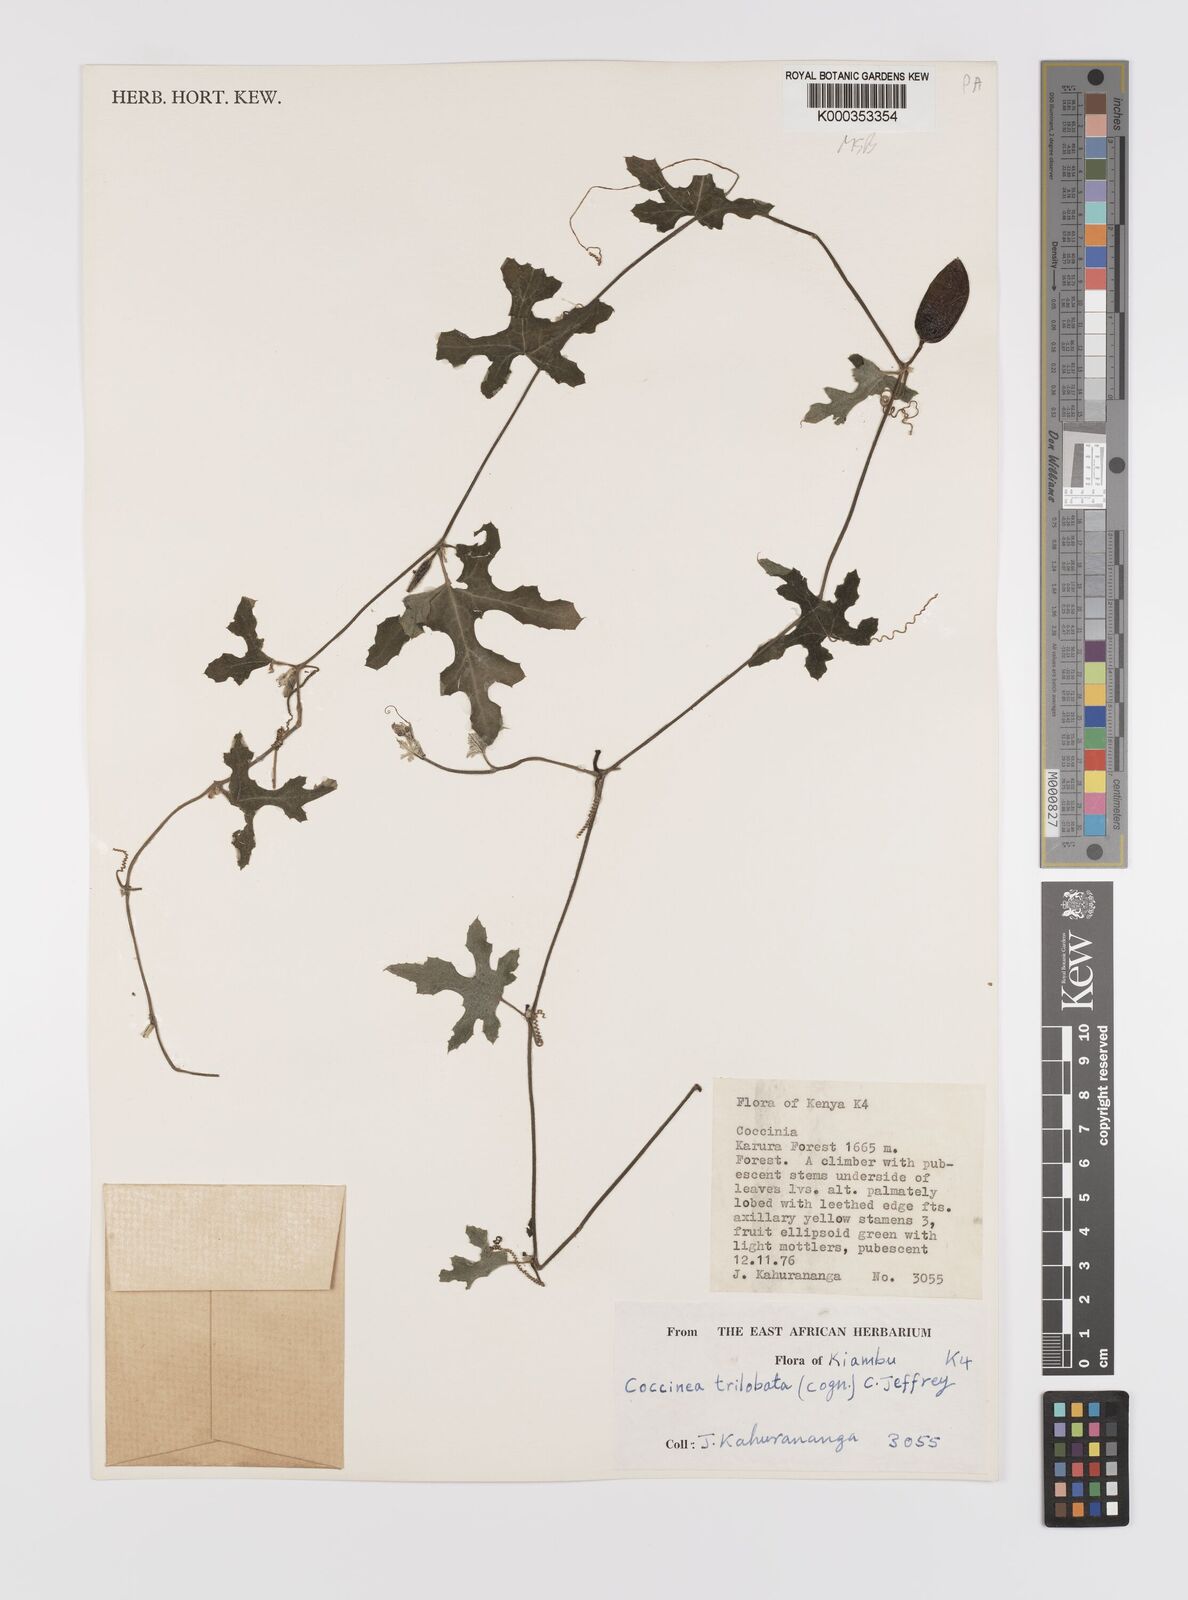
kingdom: Plantae
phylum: Tracheophyta
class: Magnoliopsida
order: Cucurbitales
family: Cucurbitaceae
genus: Coccinia
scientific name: Coccinia trilobata
